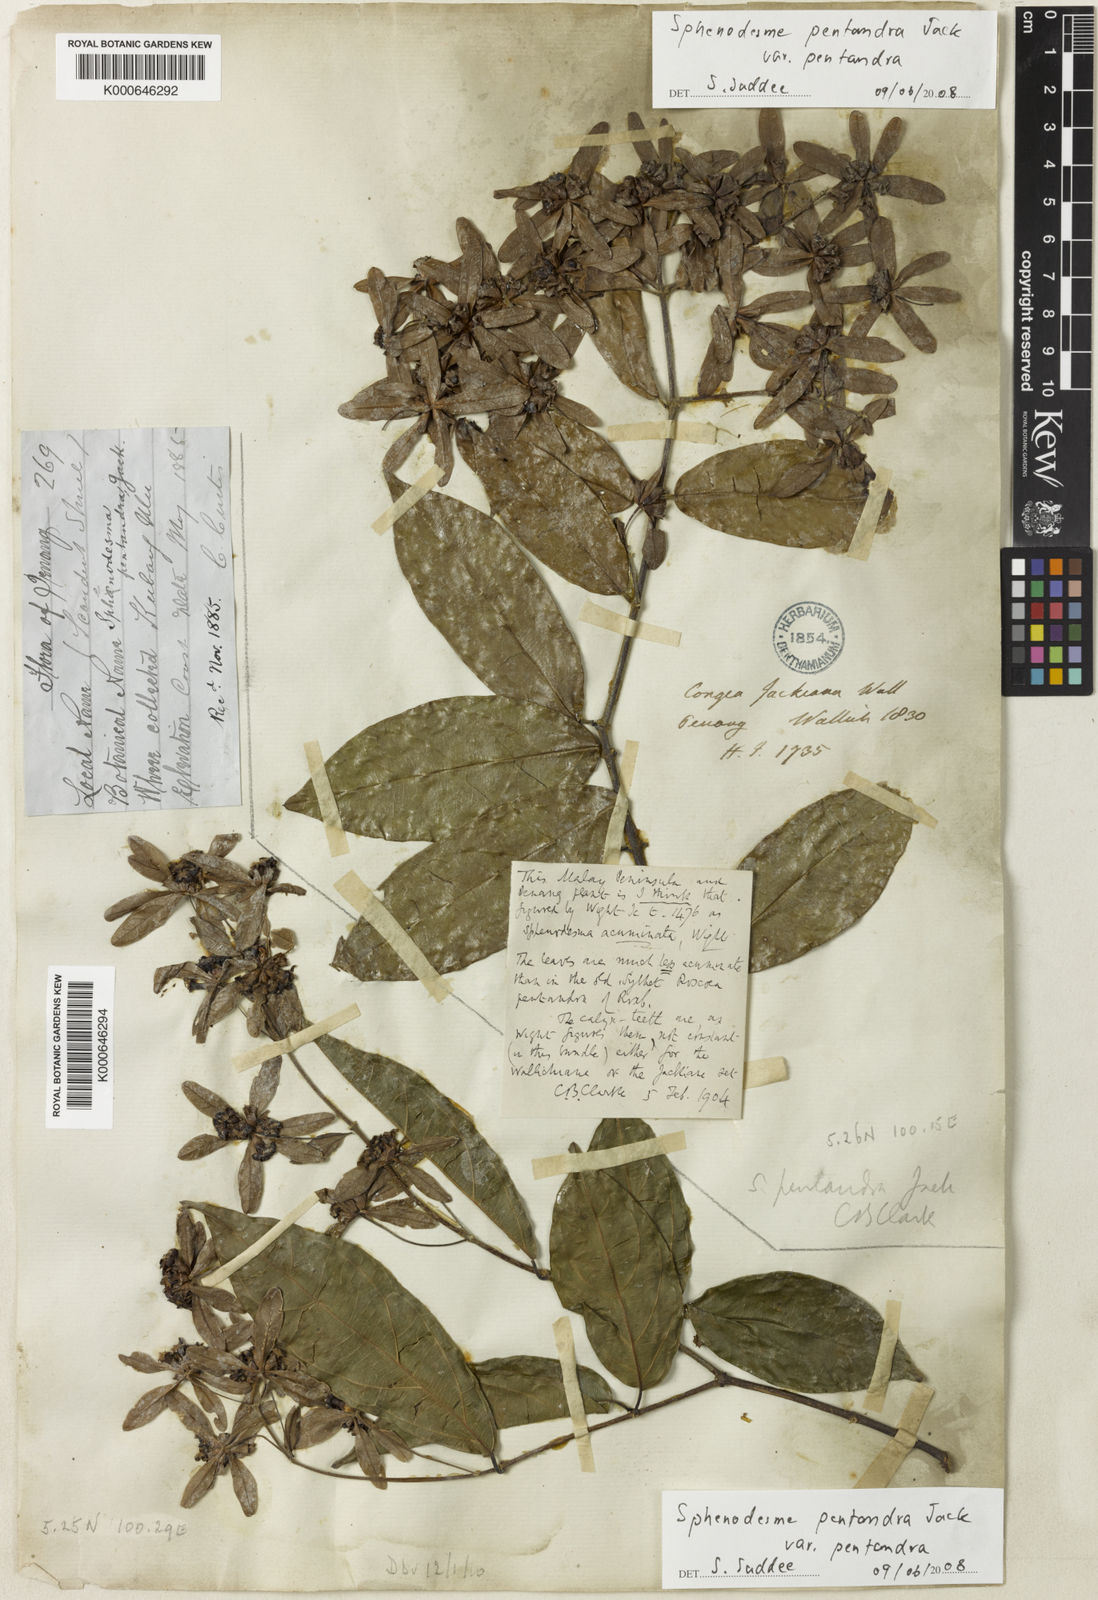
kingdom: Plantae
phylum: Tracheophyta
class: Magnoliopsida
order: Lamiales
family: Lamiaceae
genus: Sphenodesme
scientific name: Sphenodesme pentandra
